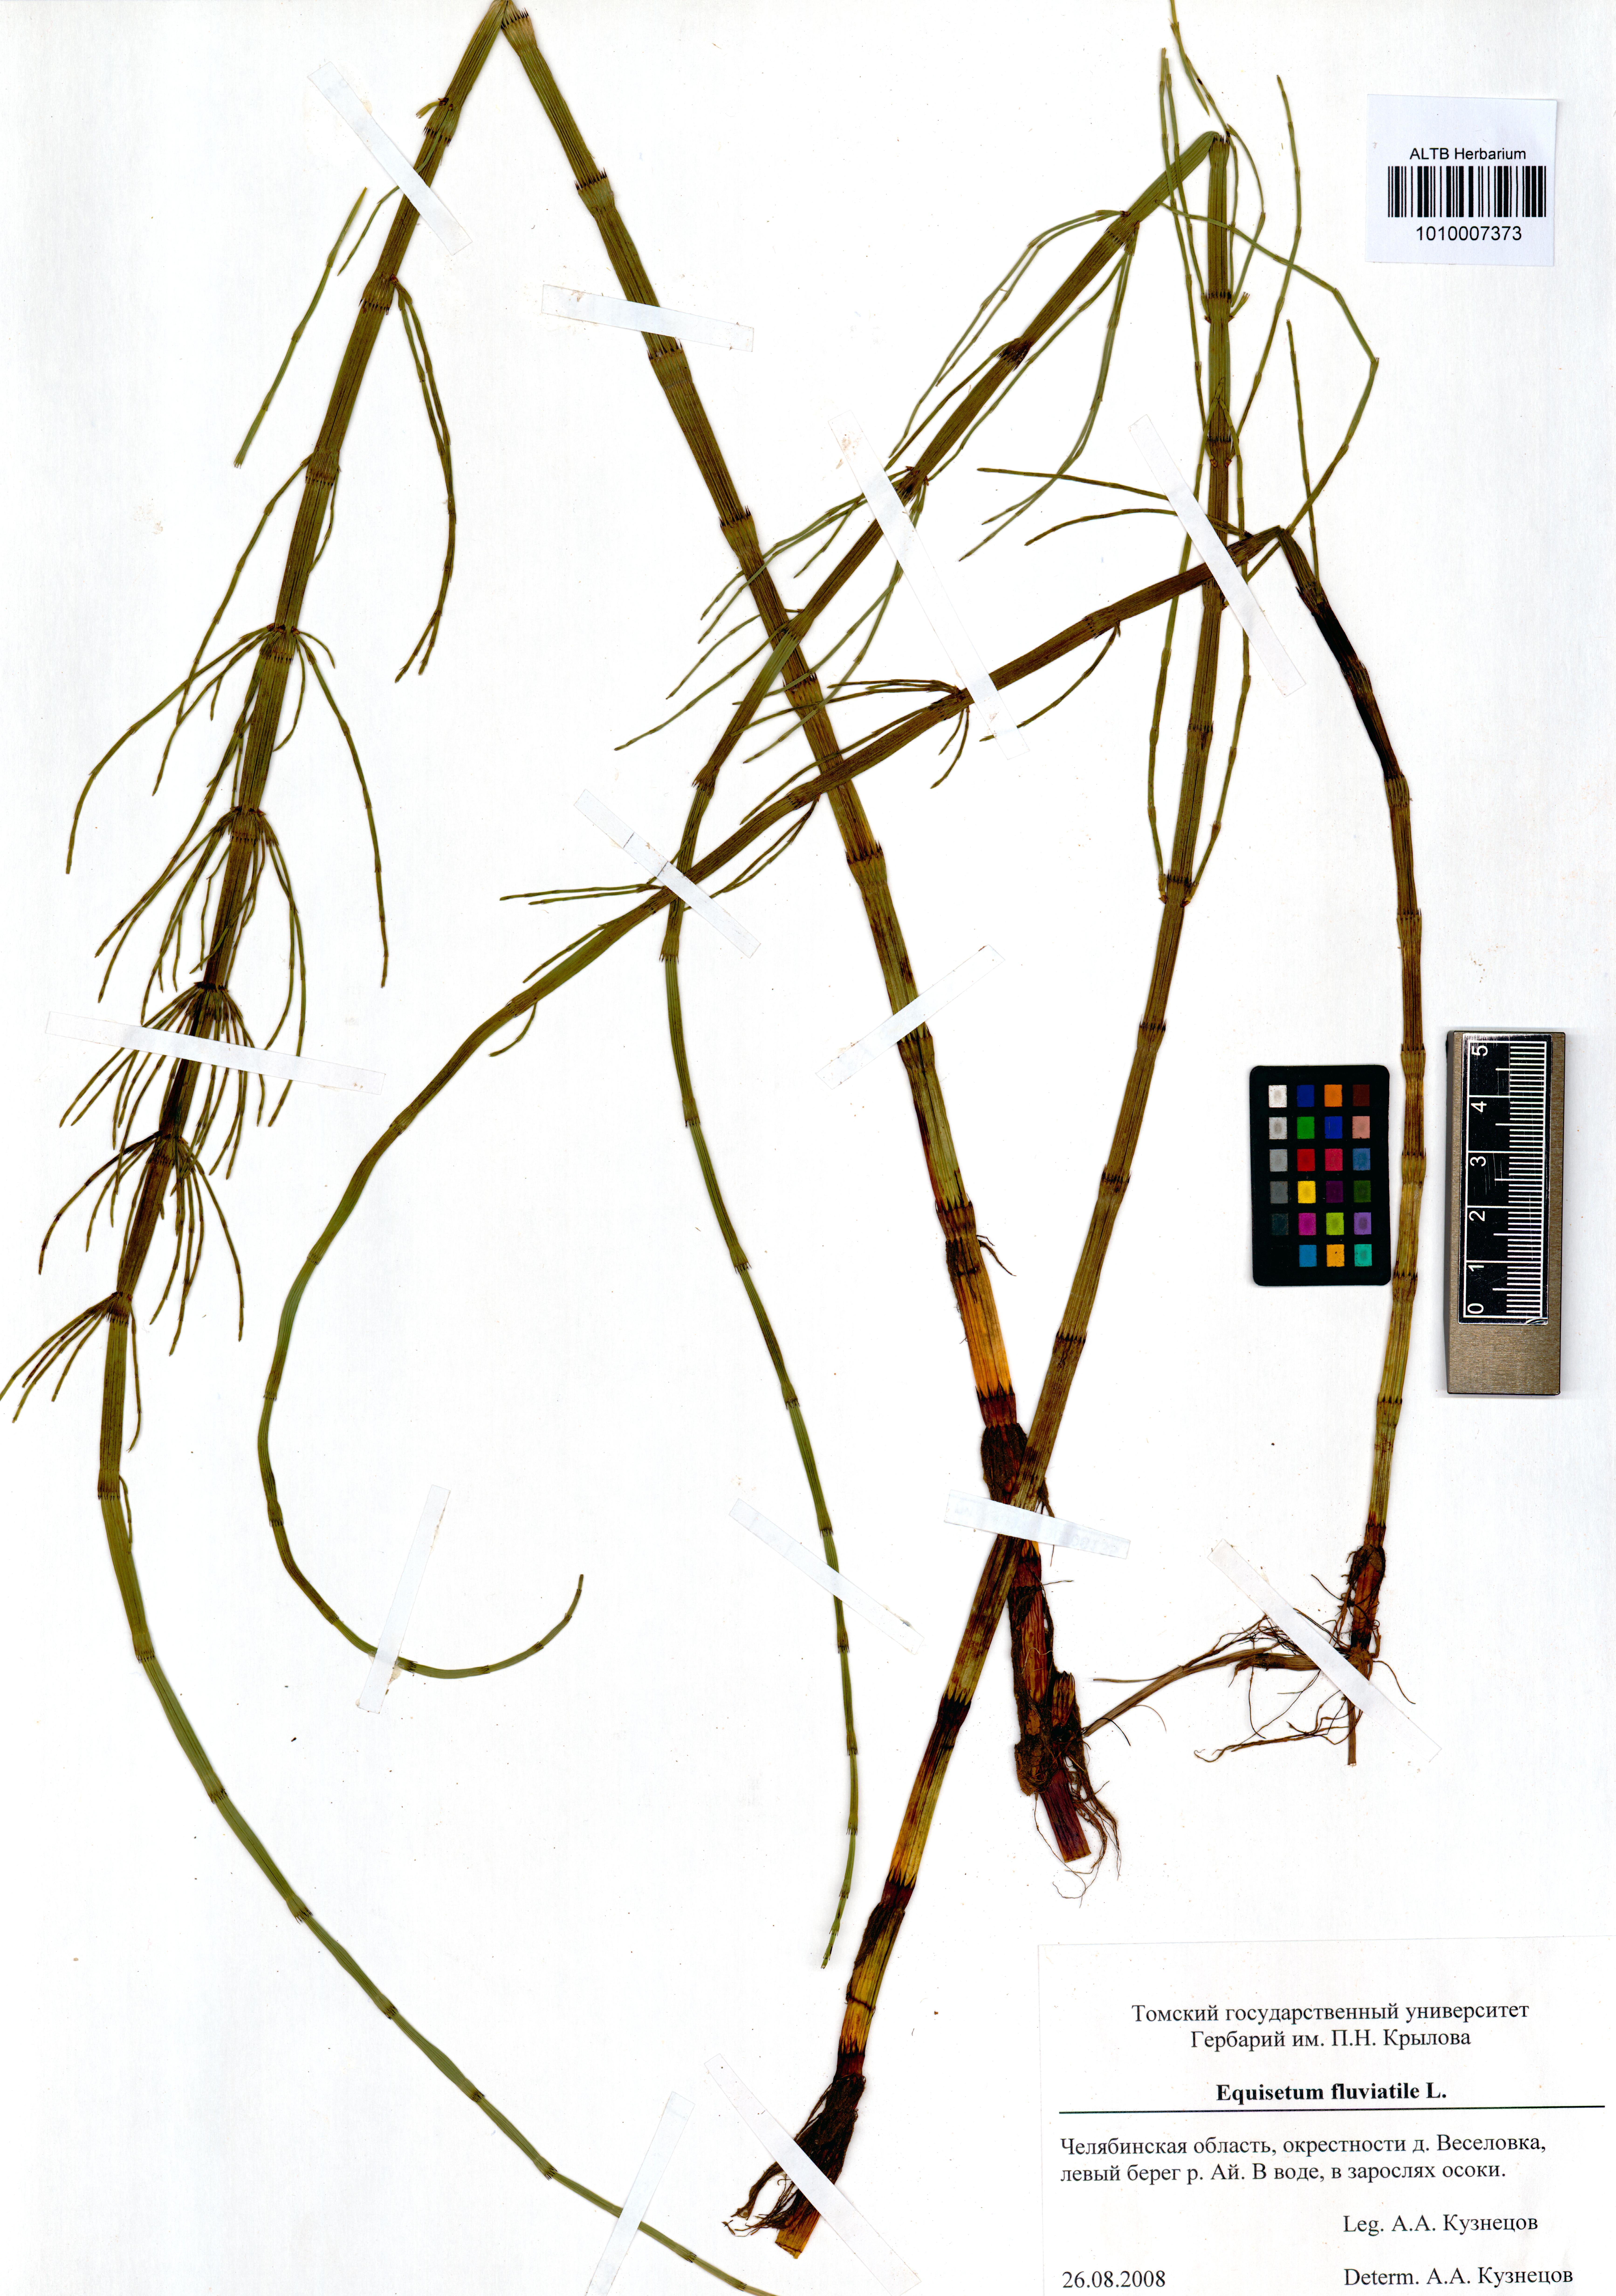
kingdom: Plantae
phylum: Tracheophyta
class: Polypodiopsida
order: Equisetales
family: Equisetaceae
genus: Equisetum
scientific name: Equisetum fluviatile
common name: Water horsetail
